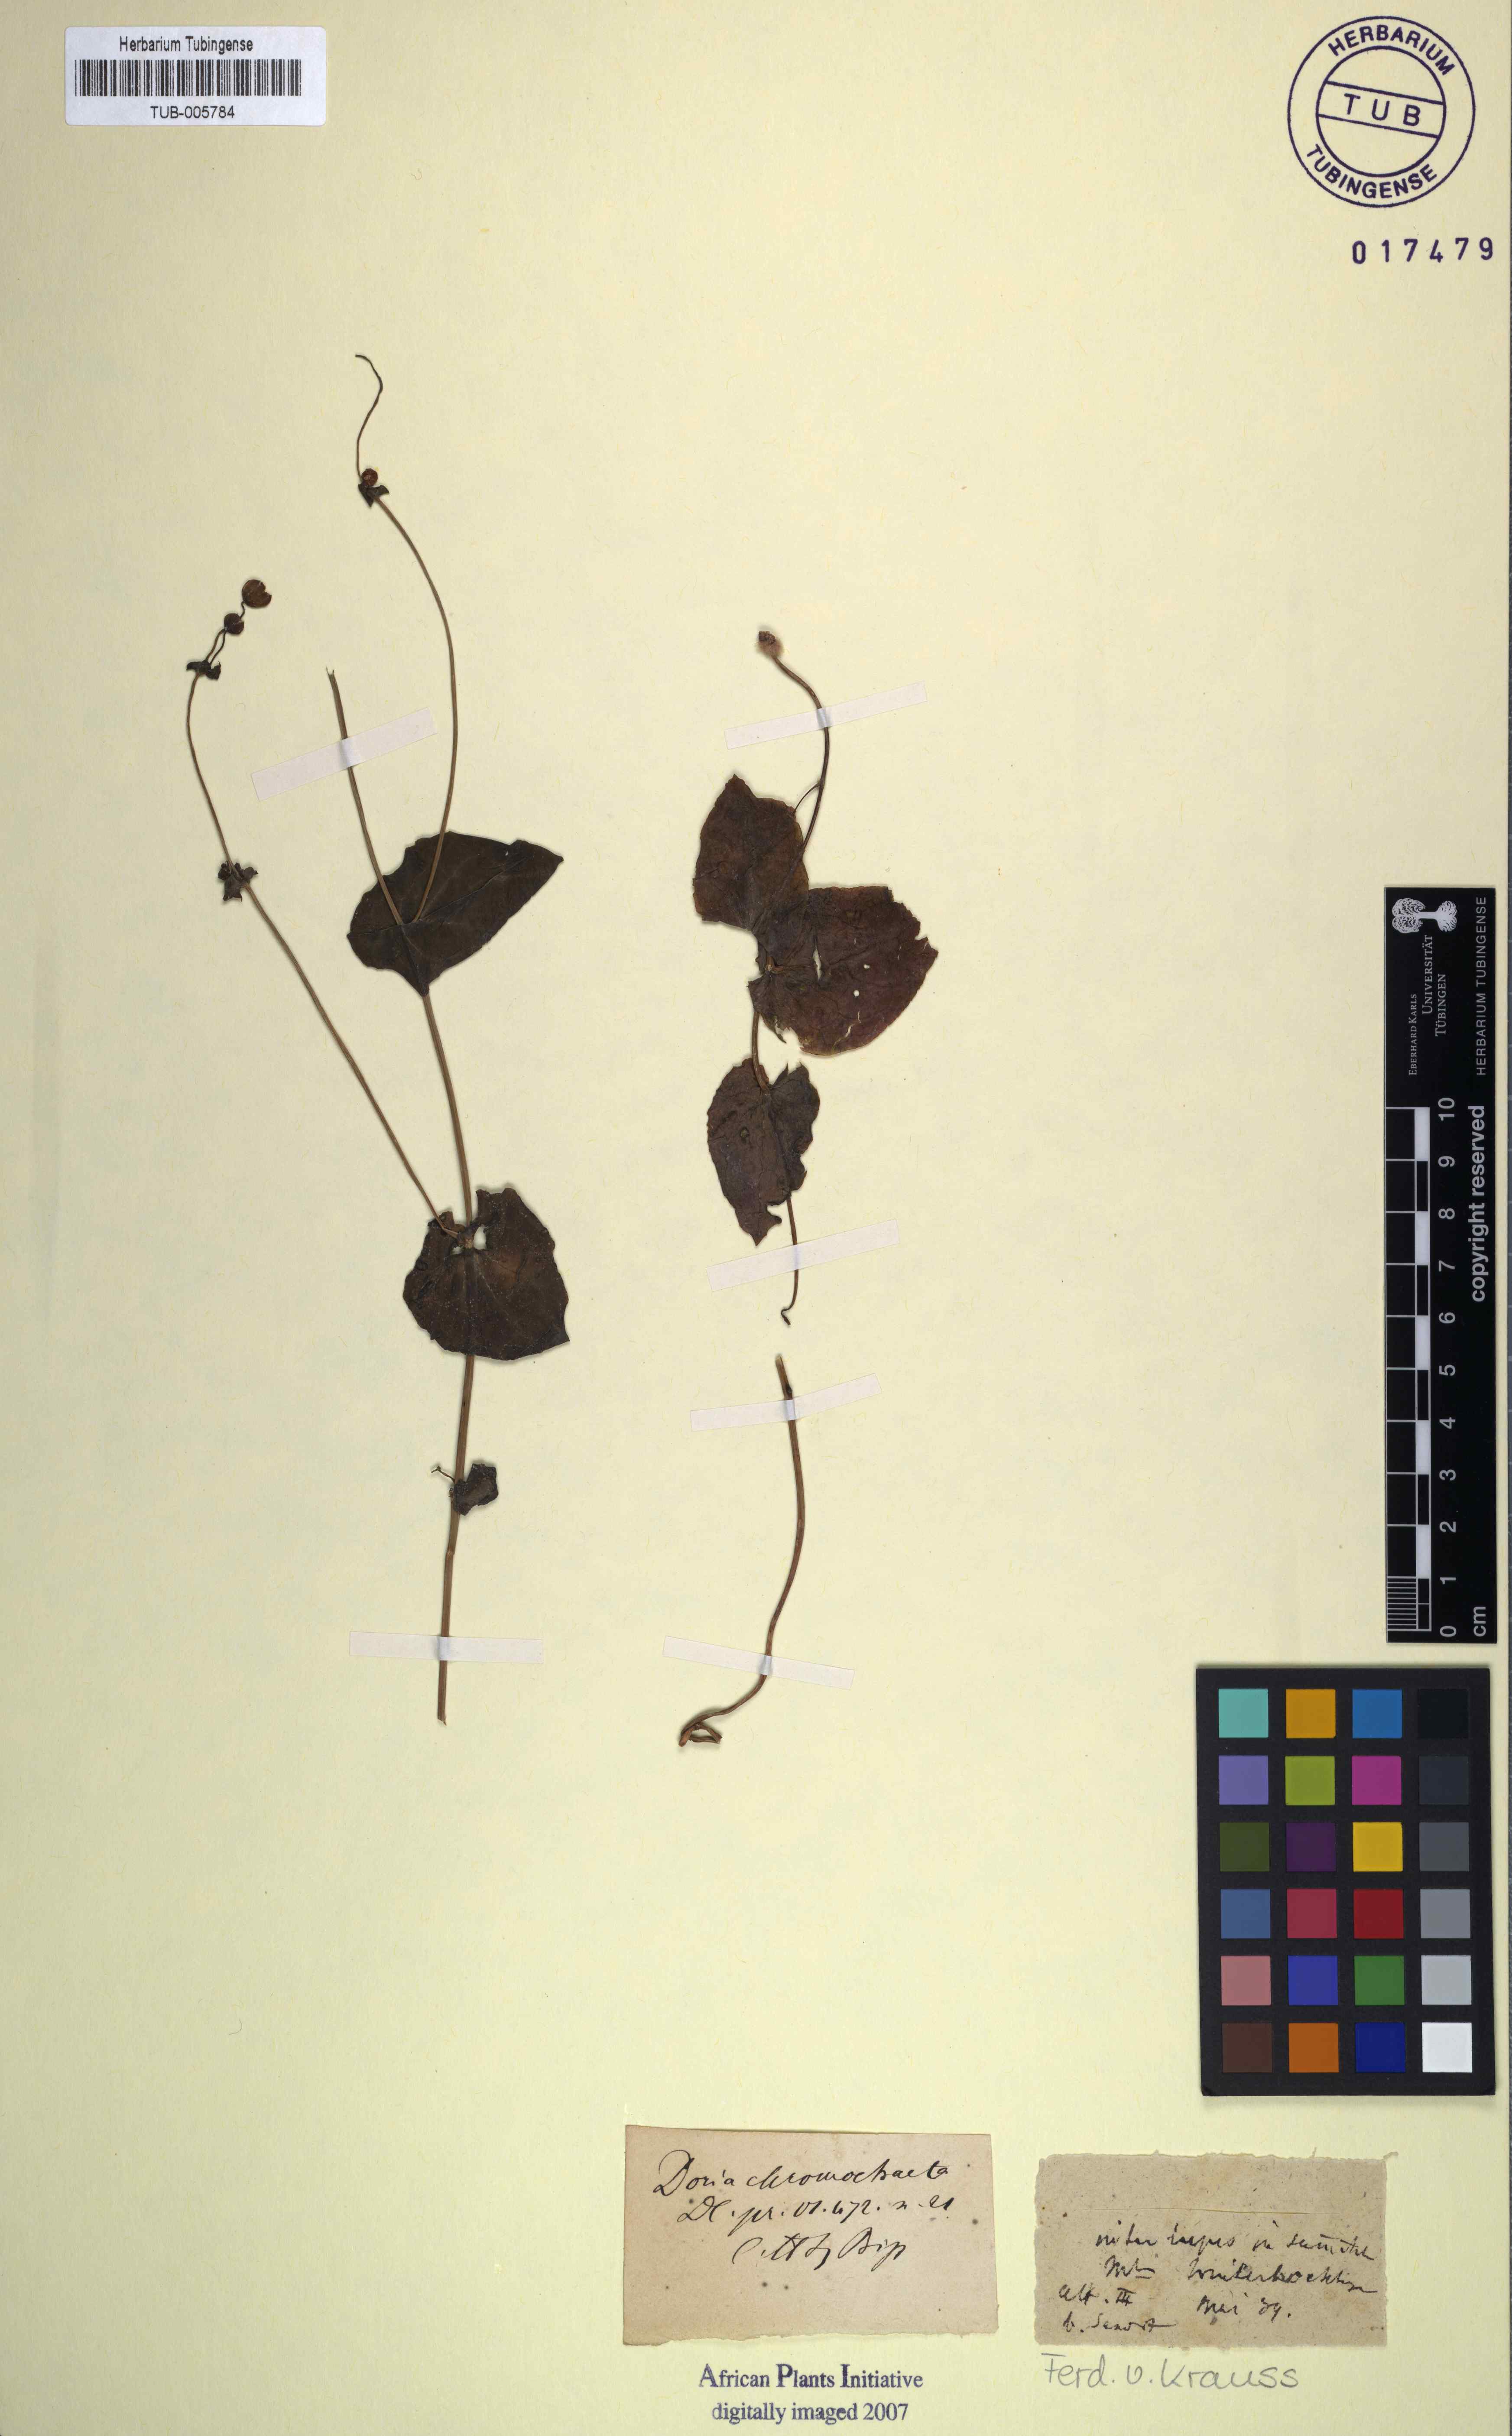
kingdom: Plantae
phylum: Tracheophyta
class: Magnoliopsida
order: Asterales
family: Asteraceae
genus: Othonna
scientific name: Othonna undulosa
